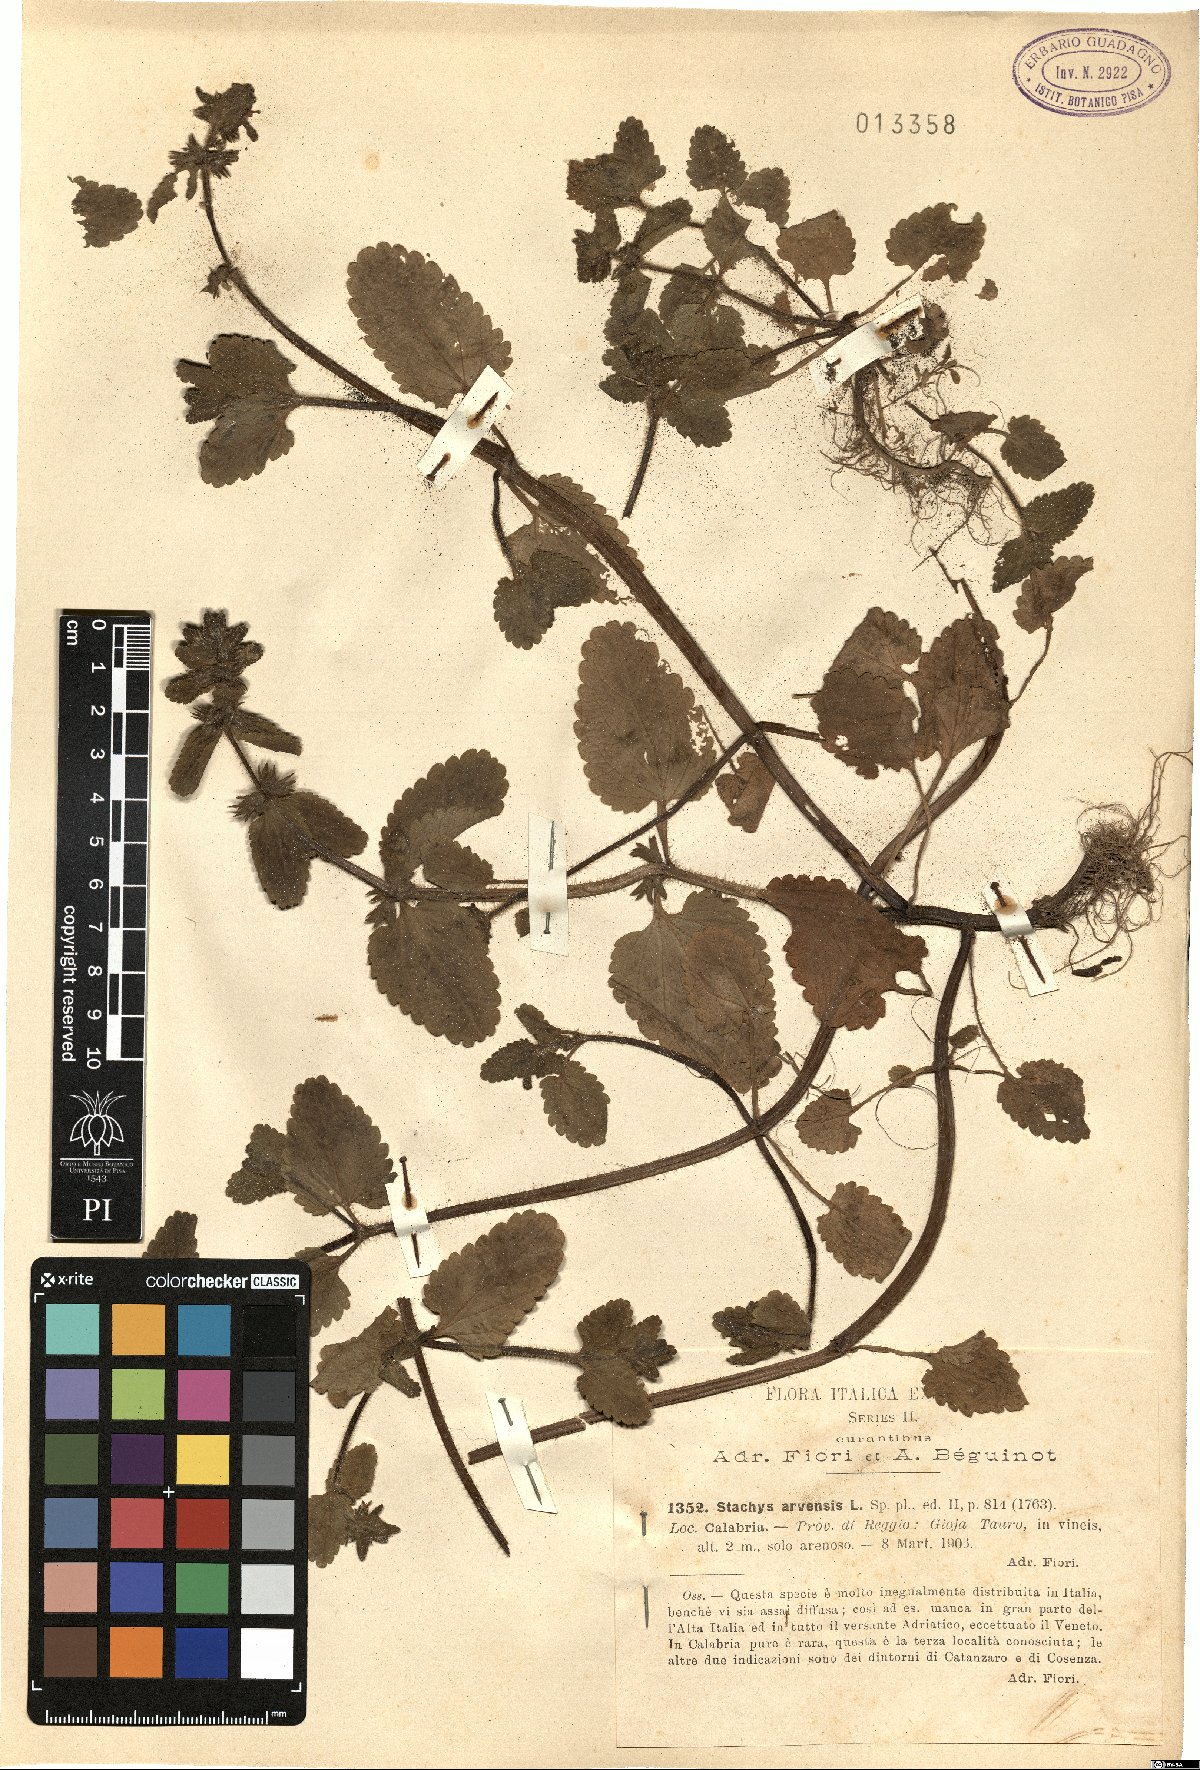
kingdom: Plantae
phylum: Tracheophyta
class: Magnoliopsida
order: Lamiales
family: Lamiaceae
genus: Stachys
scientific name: Stachys arvensis
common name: Field woundwort
